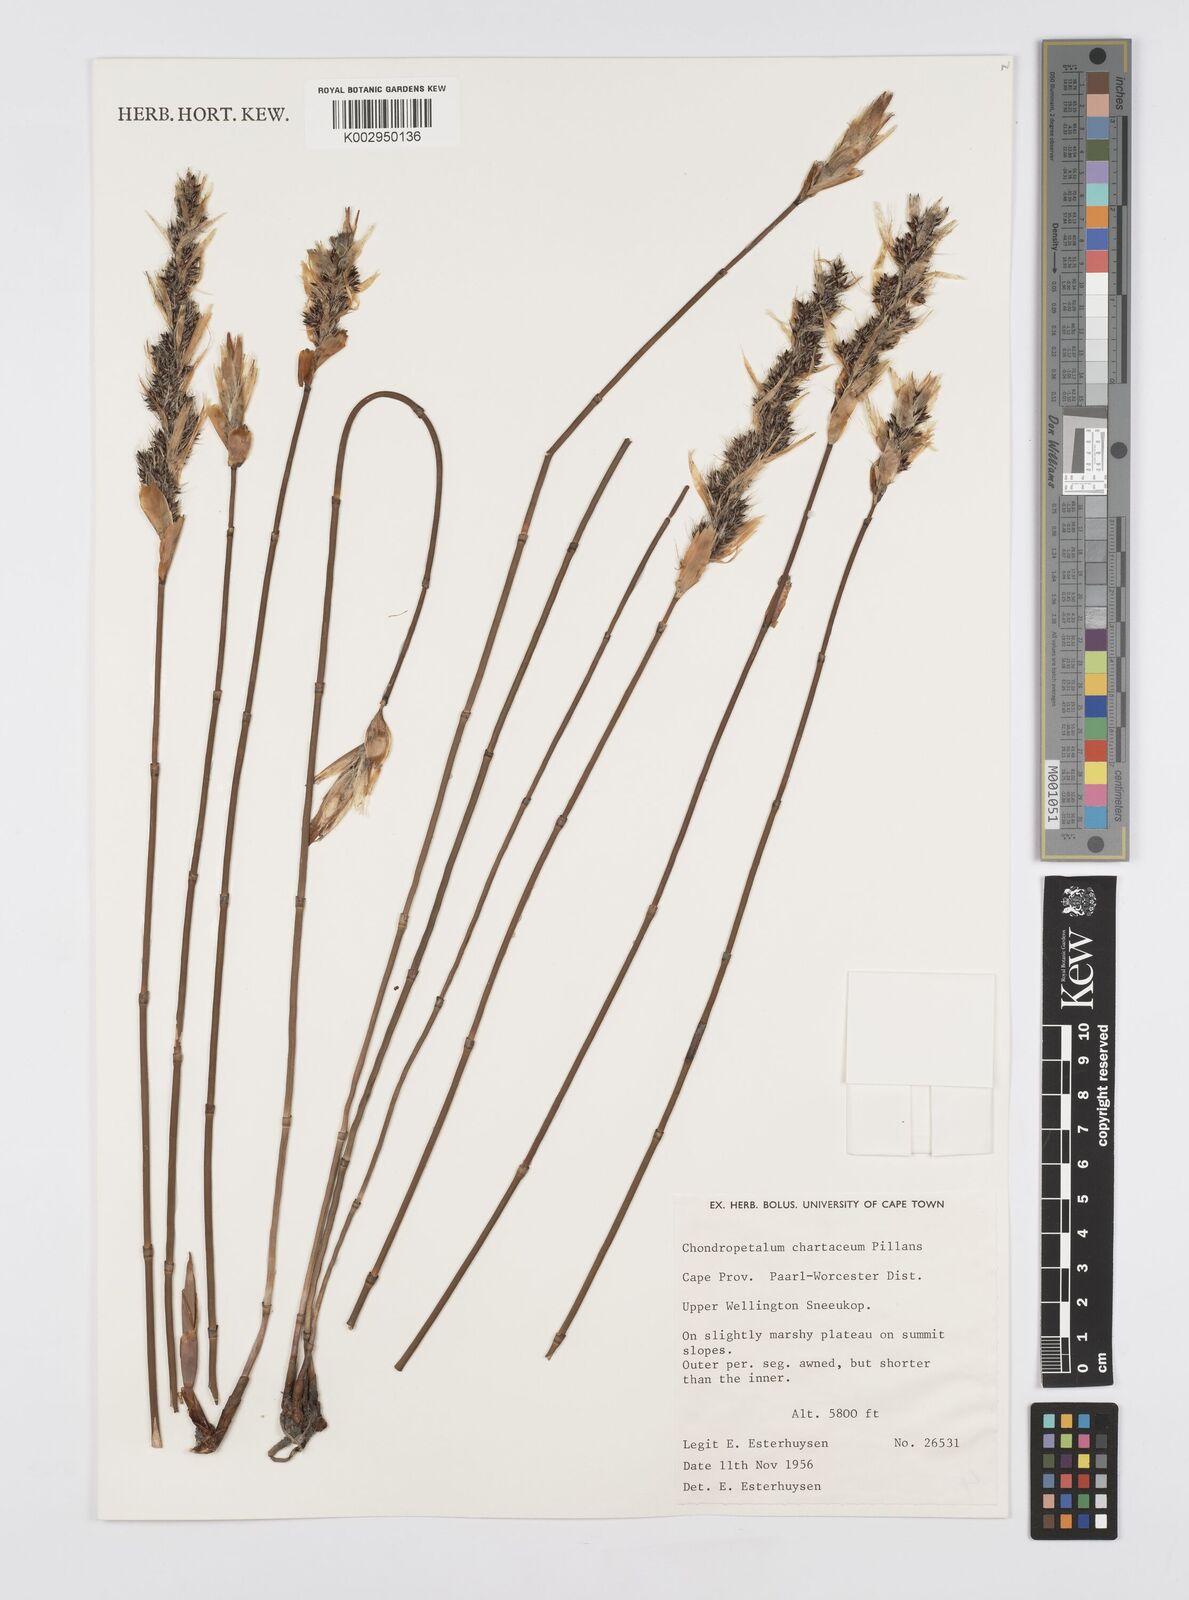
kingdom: Plantae
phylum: Tracheophyta
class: Liliopsida
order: Poales
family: Restionaceae
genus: Askidiosperma
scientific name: Askidiosperma chartaceum
